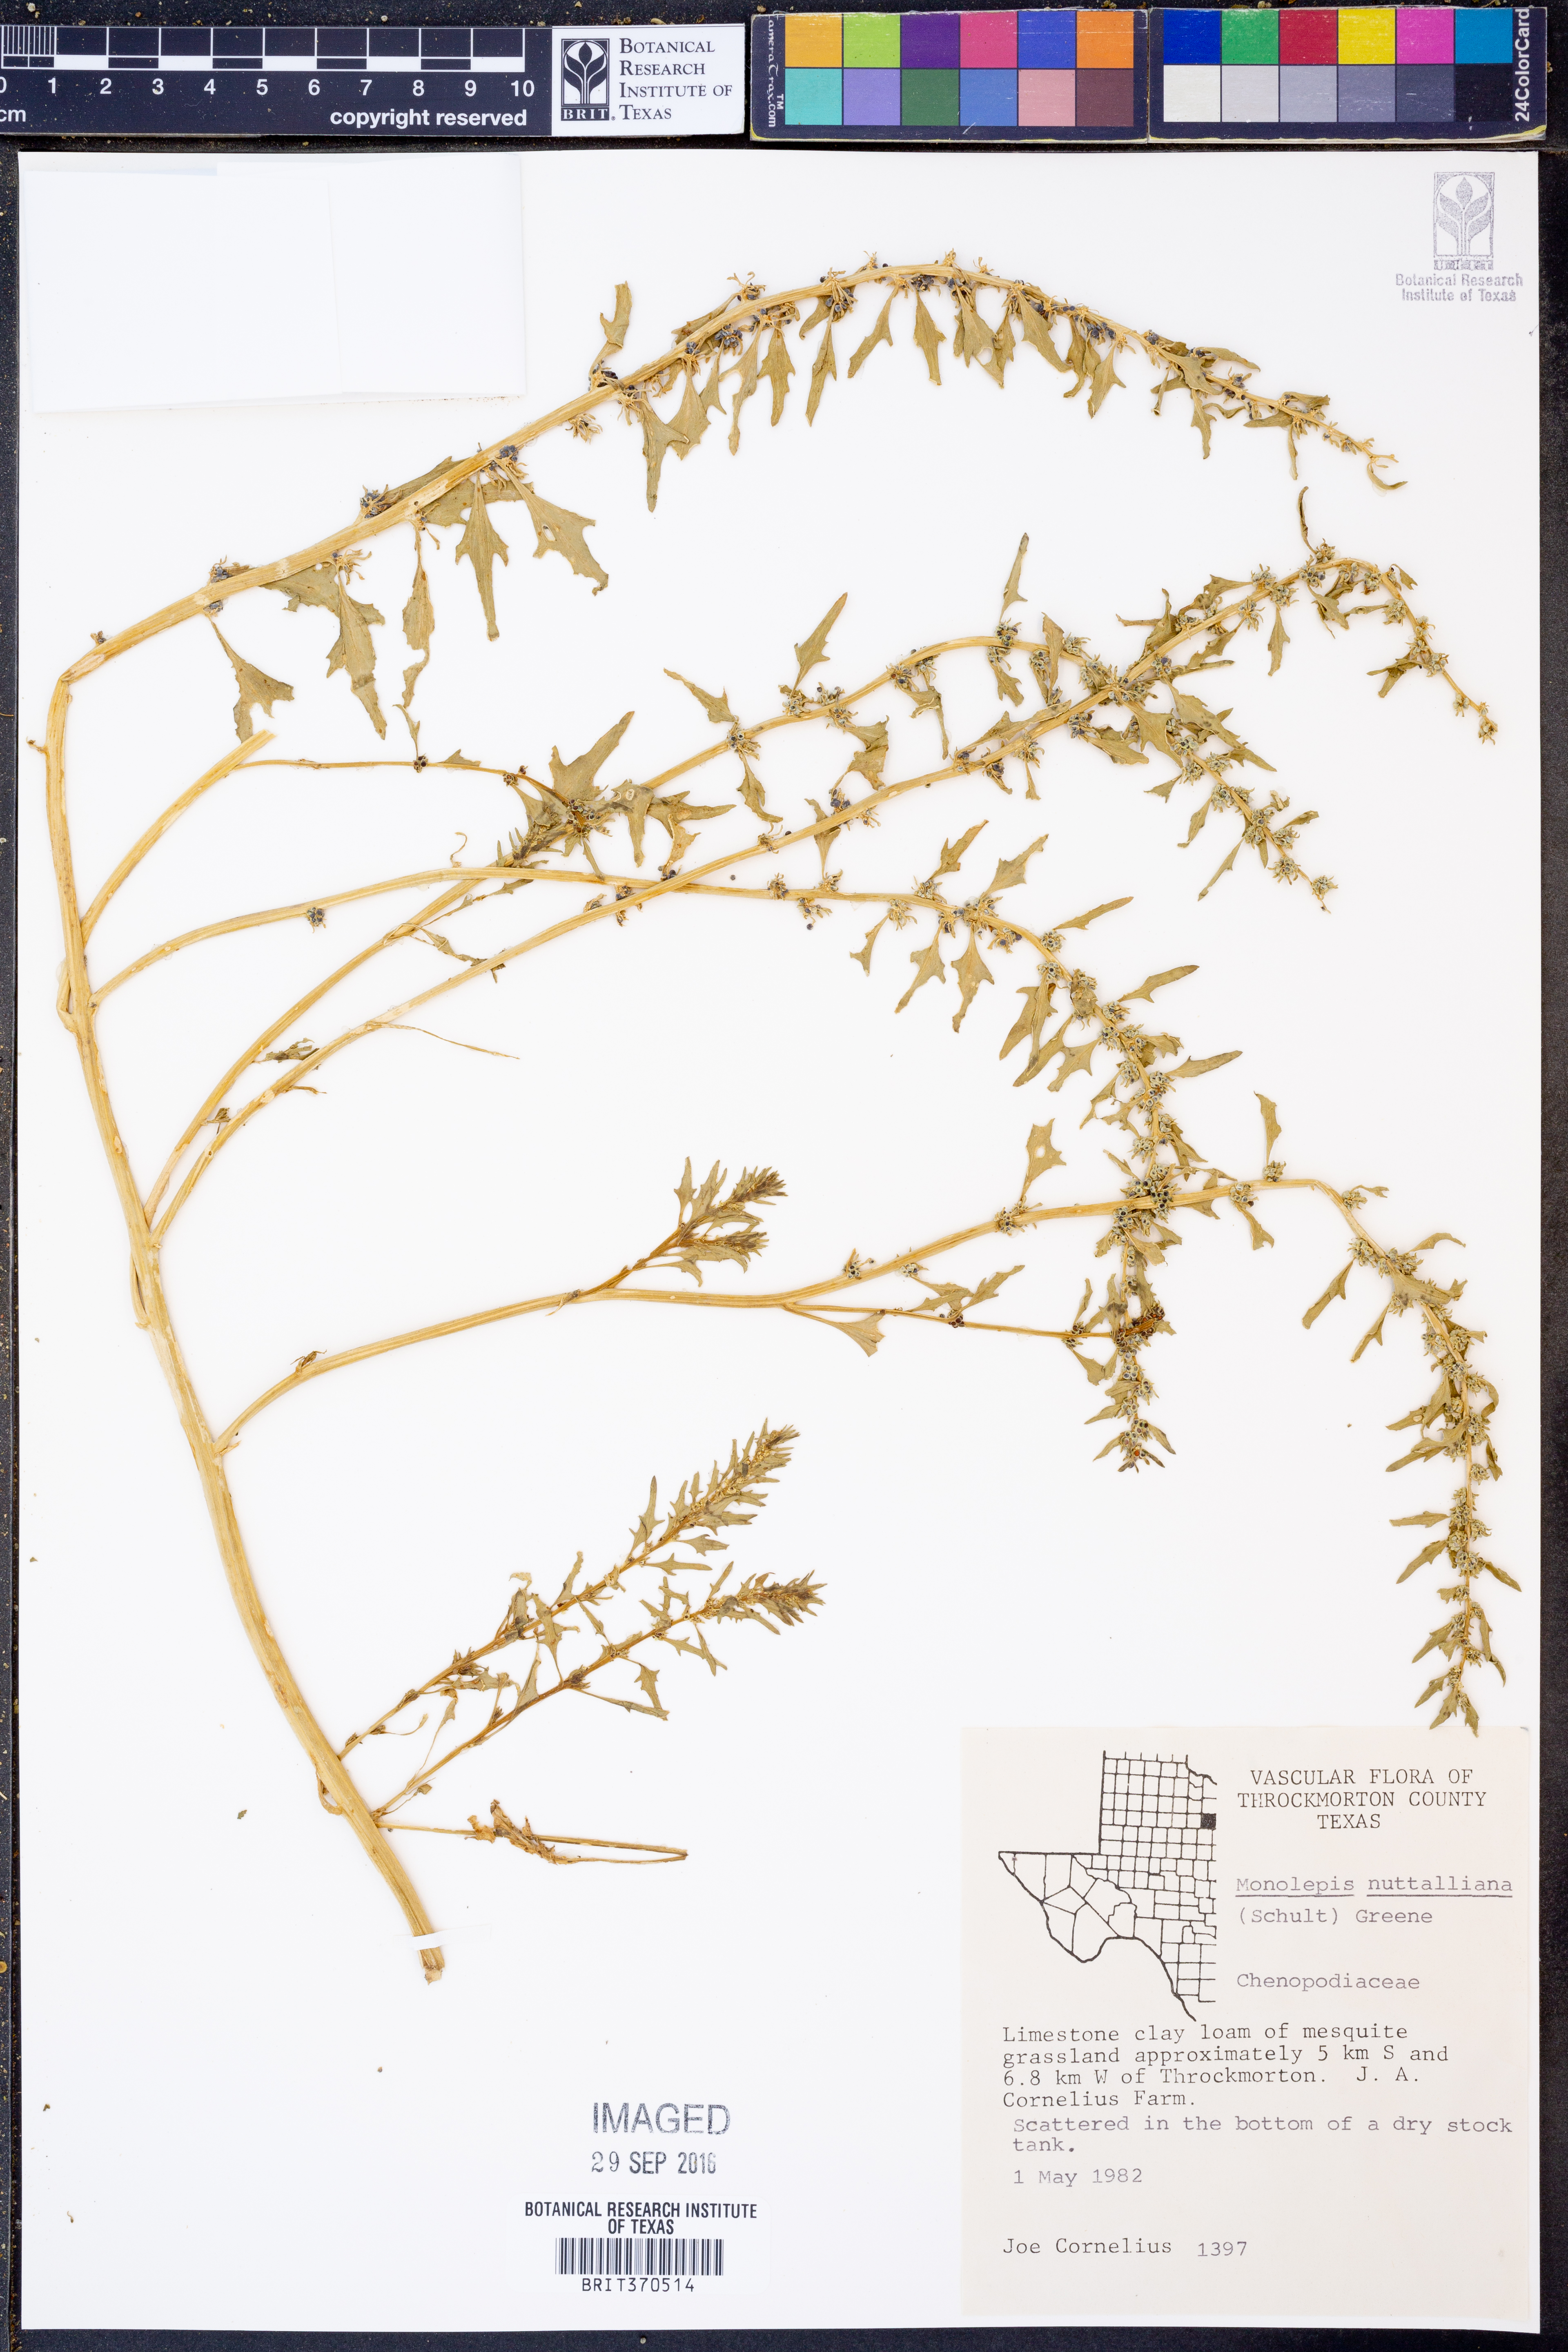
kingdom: Plantae
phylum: Tracheophyta
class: Magnoliopsida
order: Caryophyllales
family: Amaranthaceae
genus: Blitum
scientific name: Blitum nuttallianum
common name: Poverty-weed
